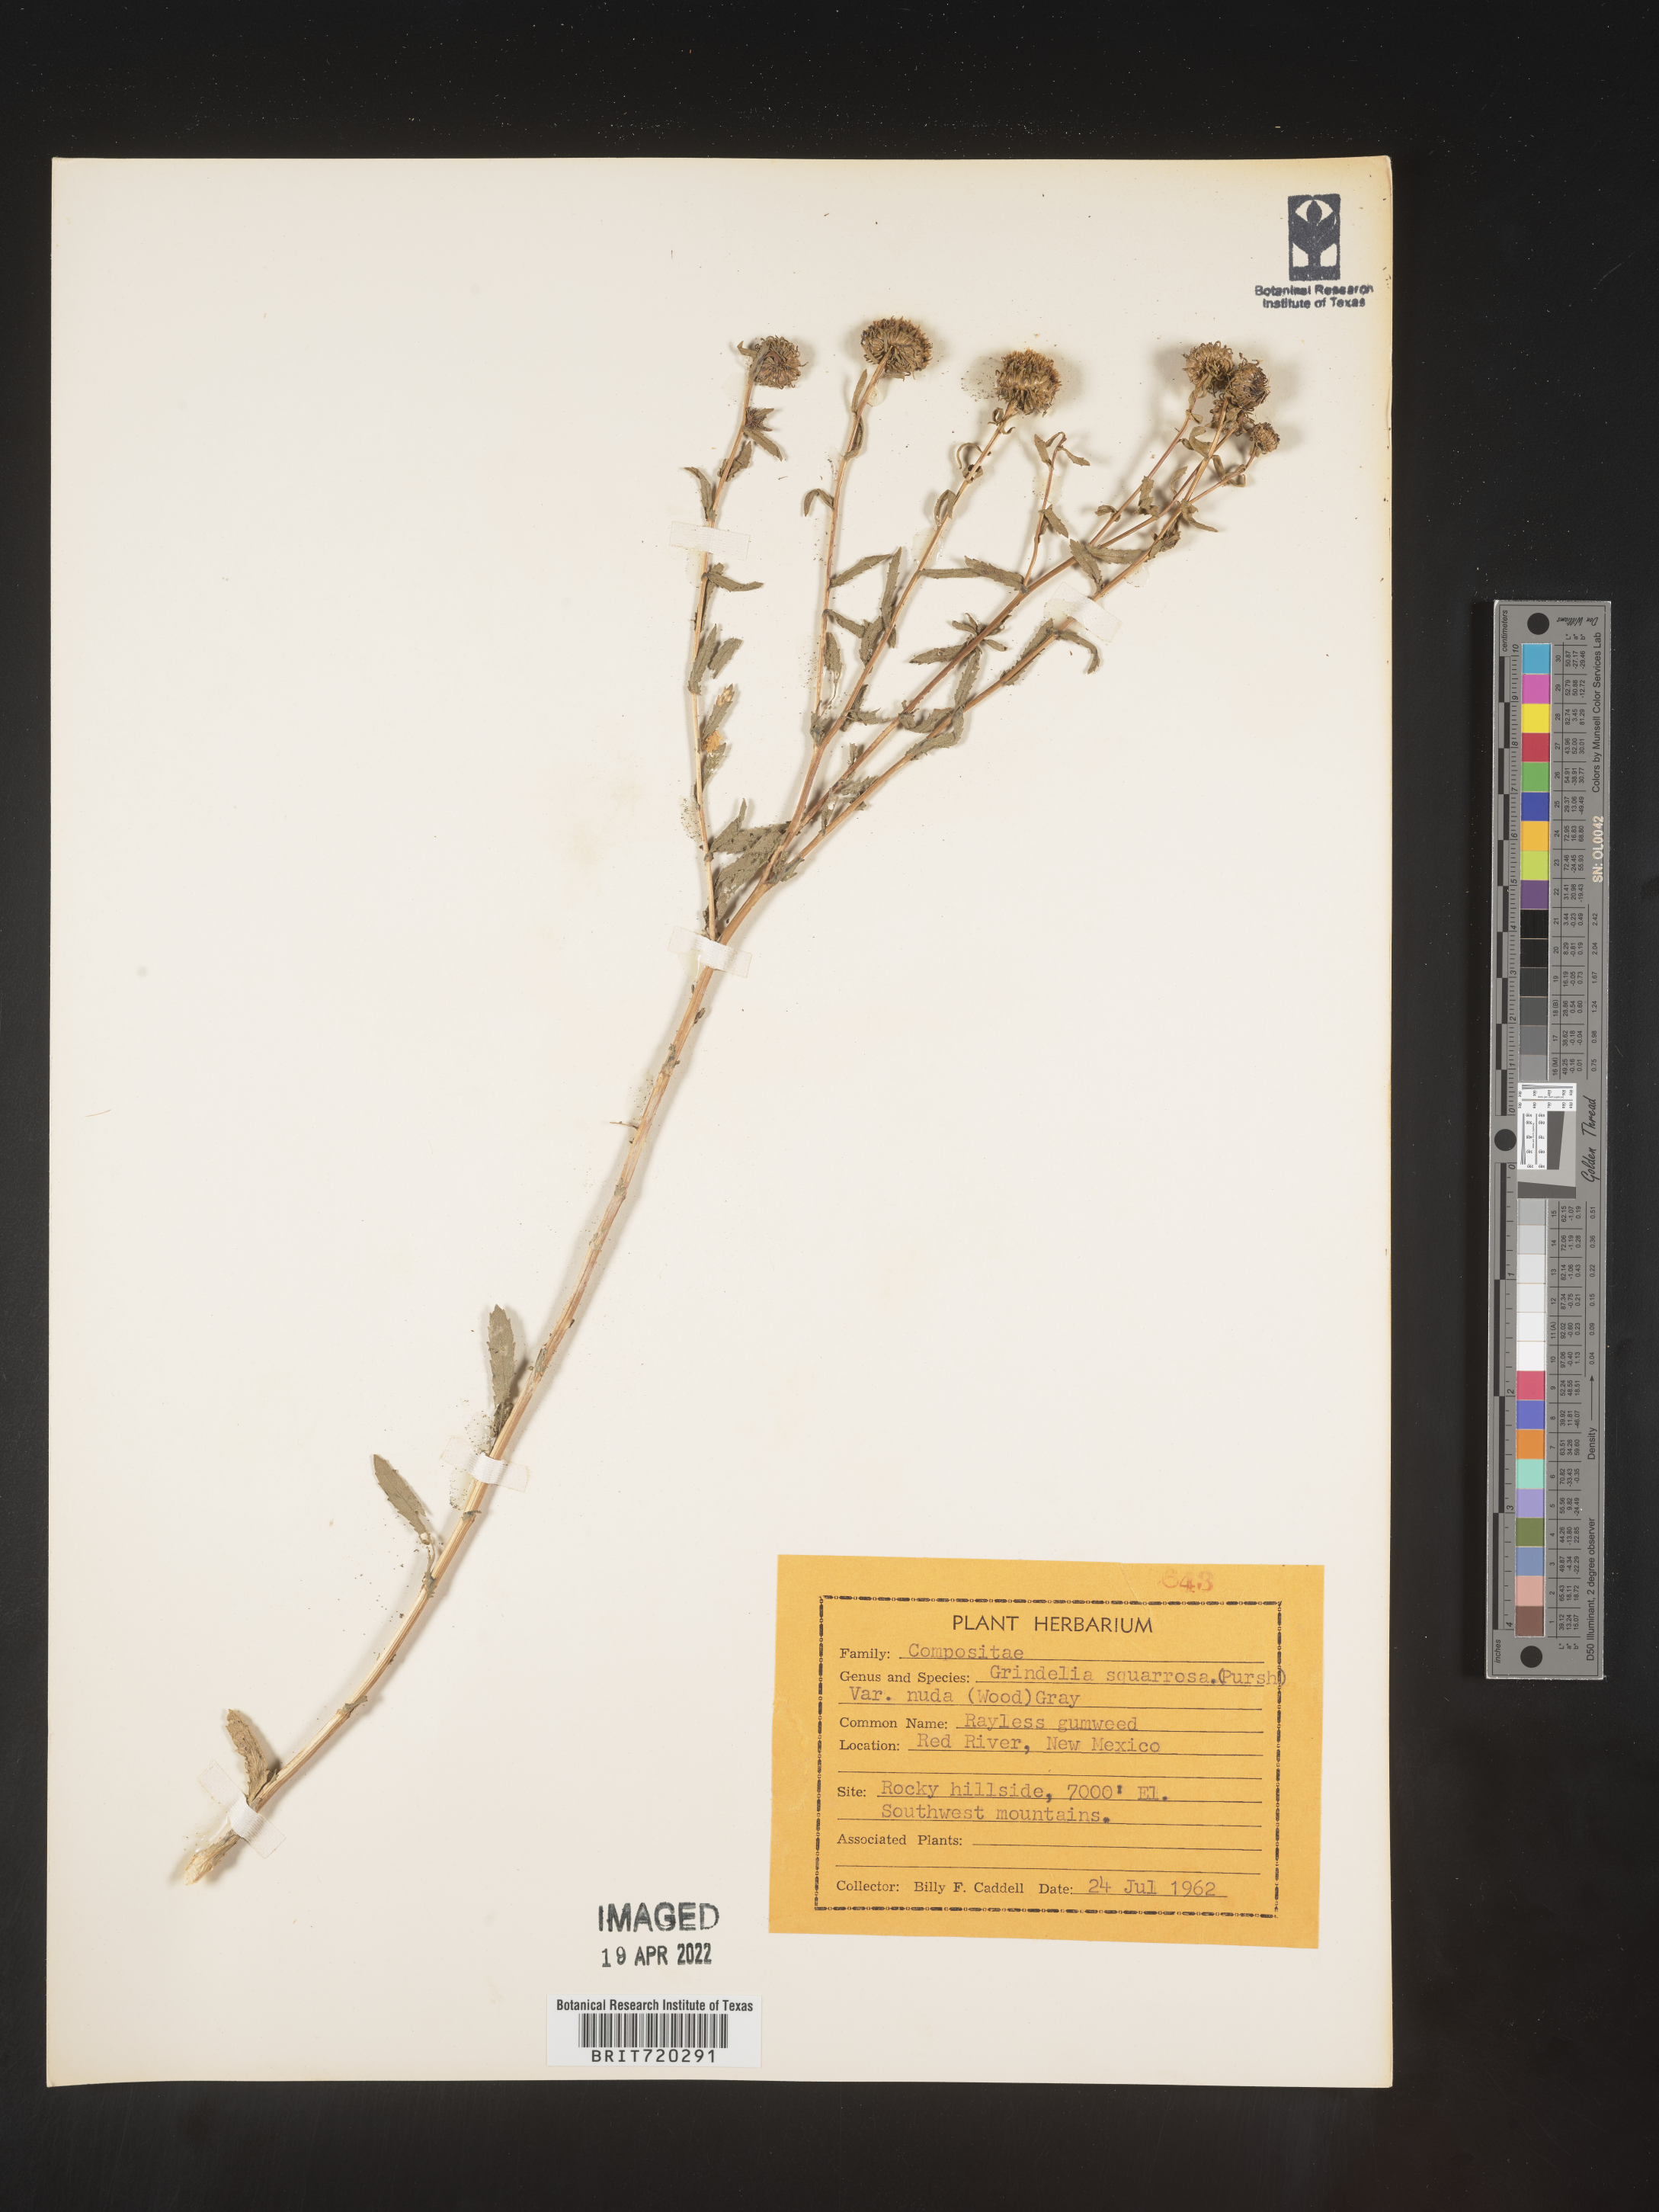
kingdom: Plantae
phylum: Tracheophyta
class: Magnoliopsida
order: Asterales
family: Asteraceae
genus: Grindelia
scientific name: Grindelia nuda
